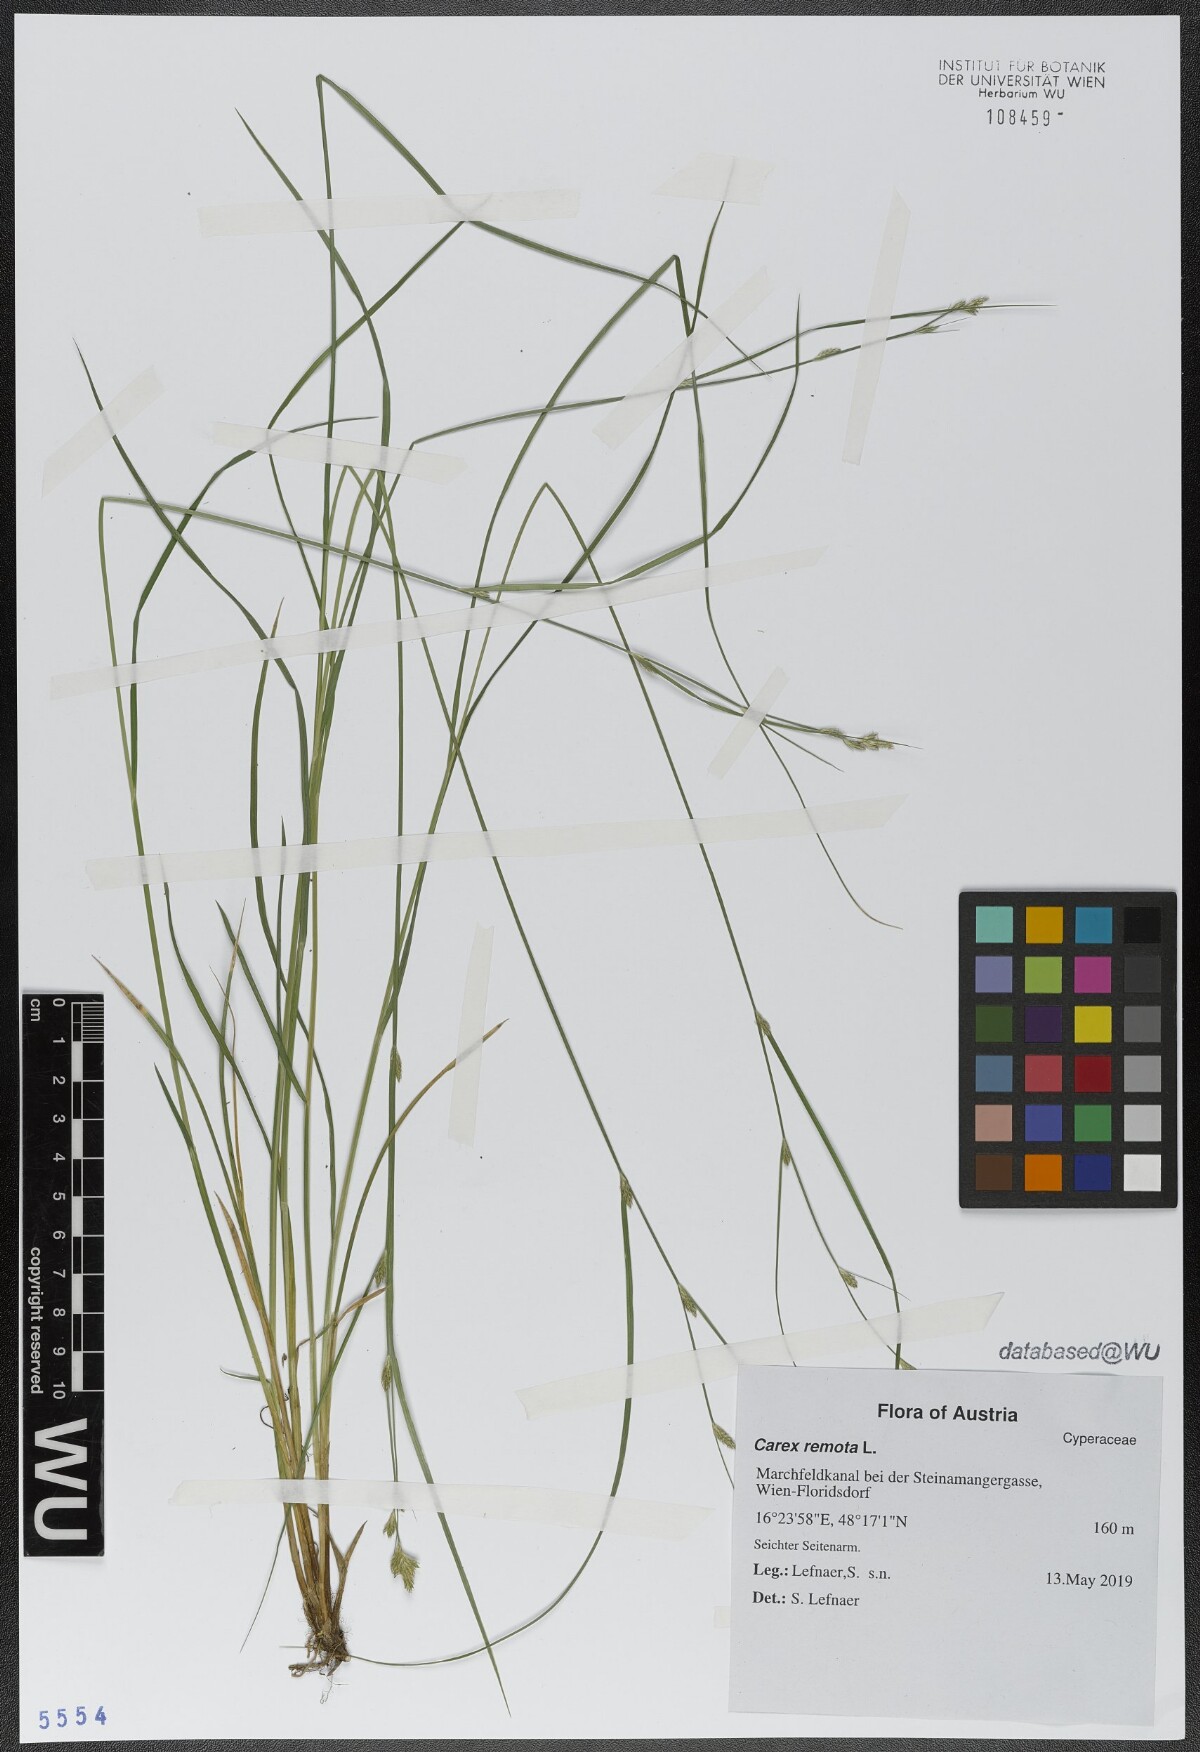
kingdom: Plantae
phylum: Tracheophyta
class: Liliopsida
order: Poales
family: Cyperaceae
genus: Carex
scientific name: Carex remota
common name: Remote sedge
